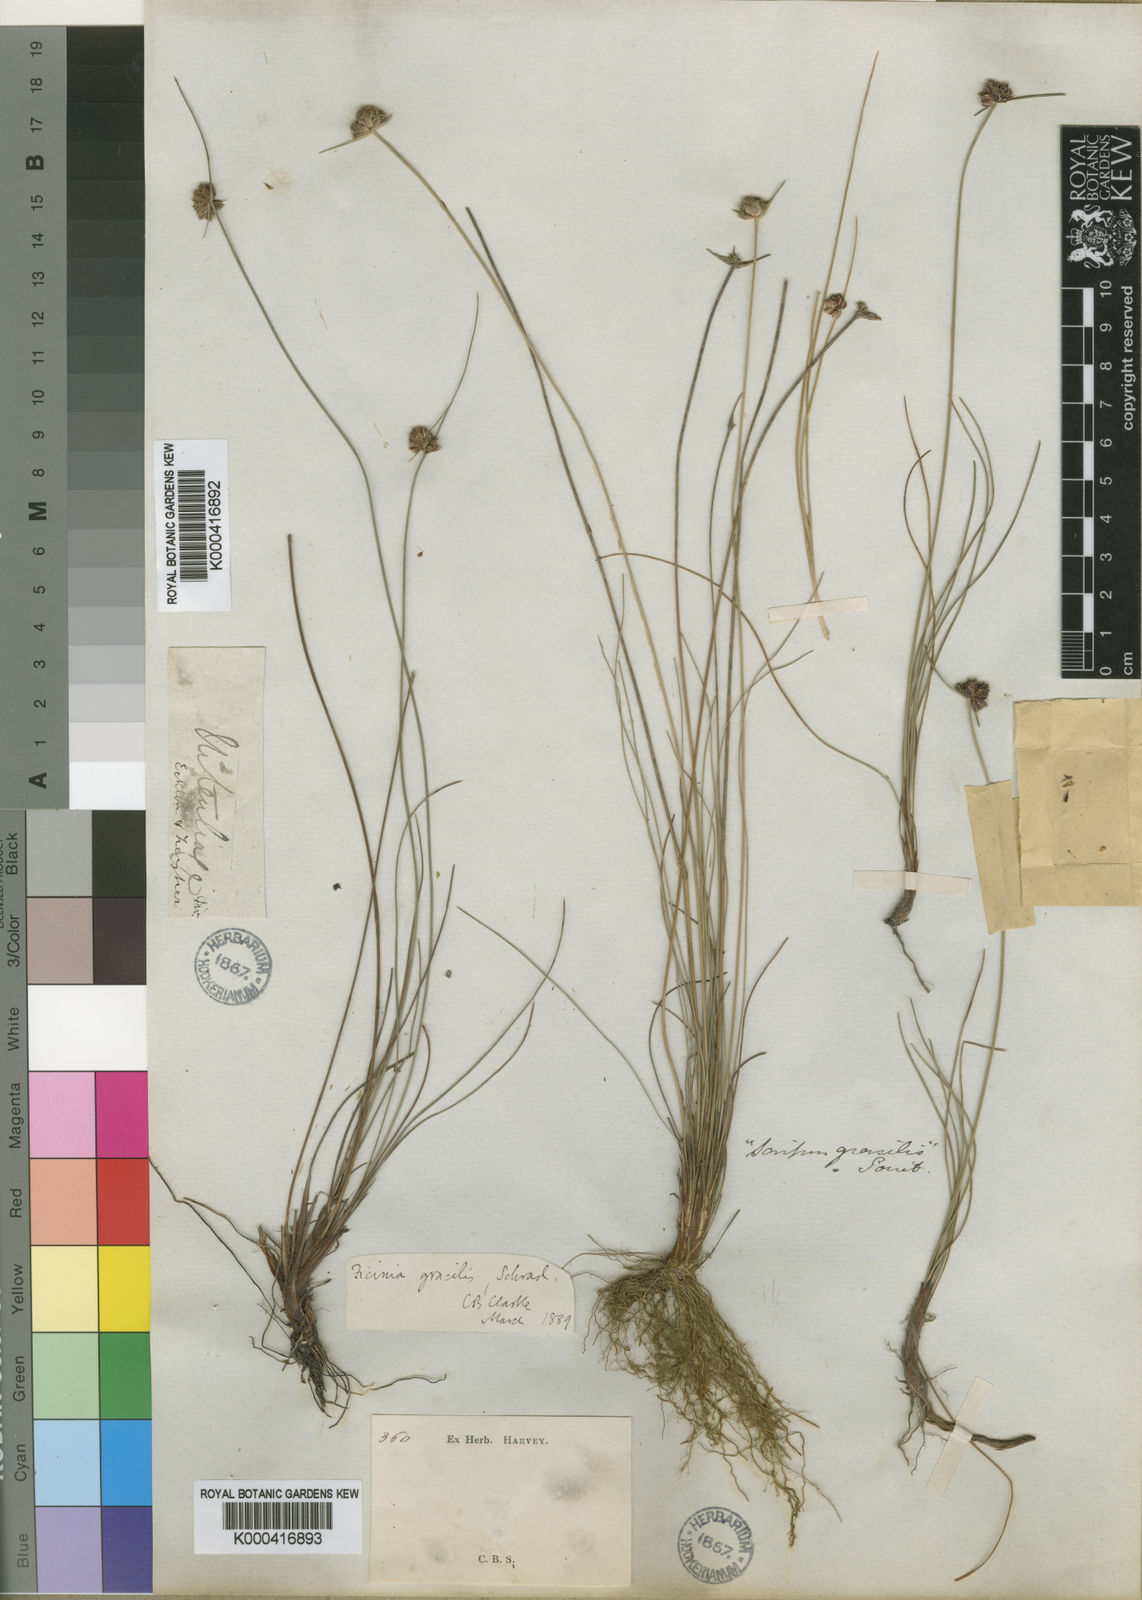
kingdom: Plantae
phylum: Tracheophyta
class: Liliopsida
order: Poales
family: Cyperaceae
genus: Ficinia
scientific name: Ficinia ecklonea
